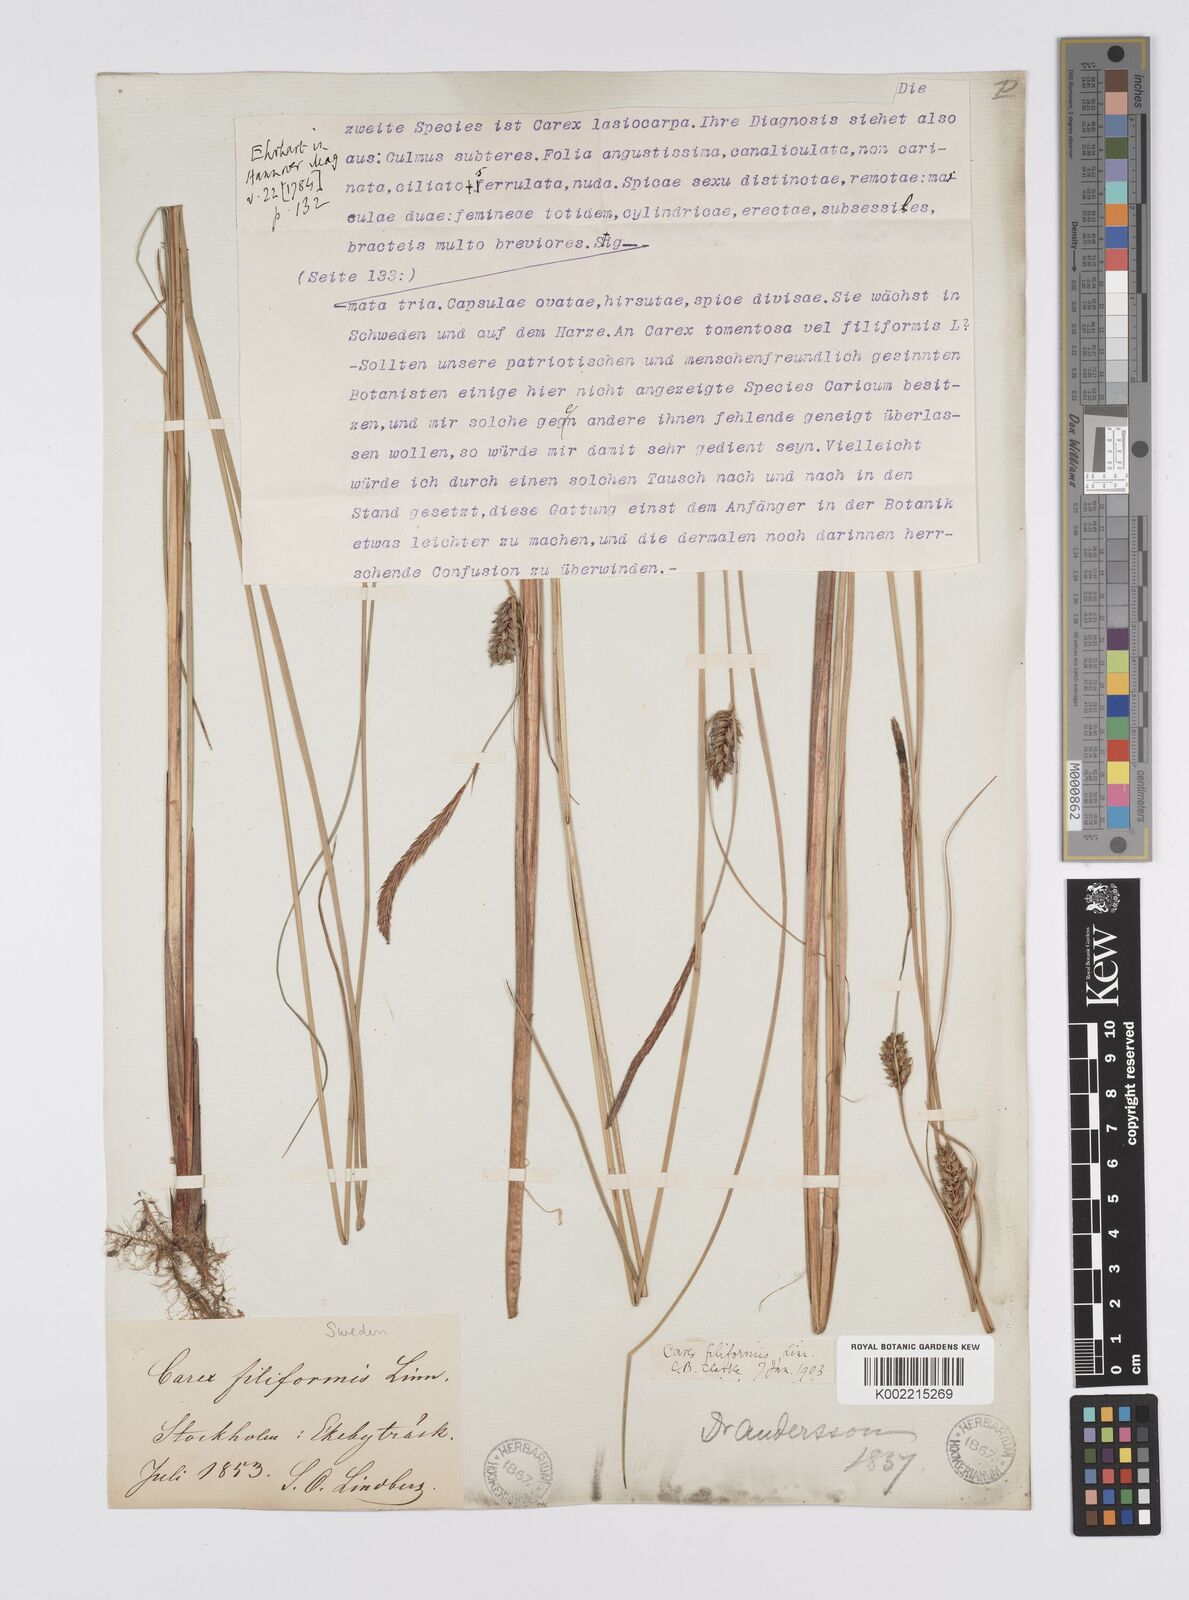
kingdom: Plantae
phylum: Tracheophyta
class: Liliopsida
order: Poales
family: Cyperaceae
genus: Carex
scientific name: Carex lasiocarpa
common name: Slender sedge
